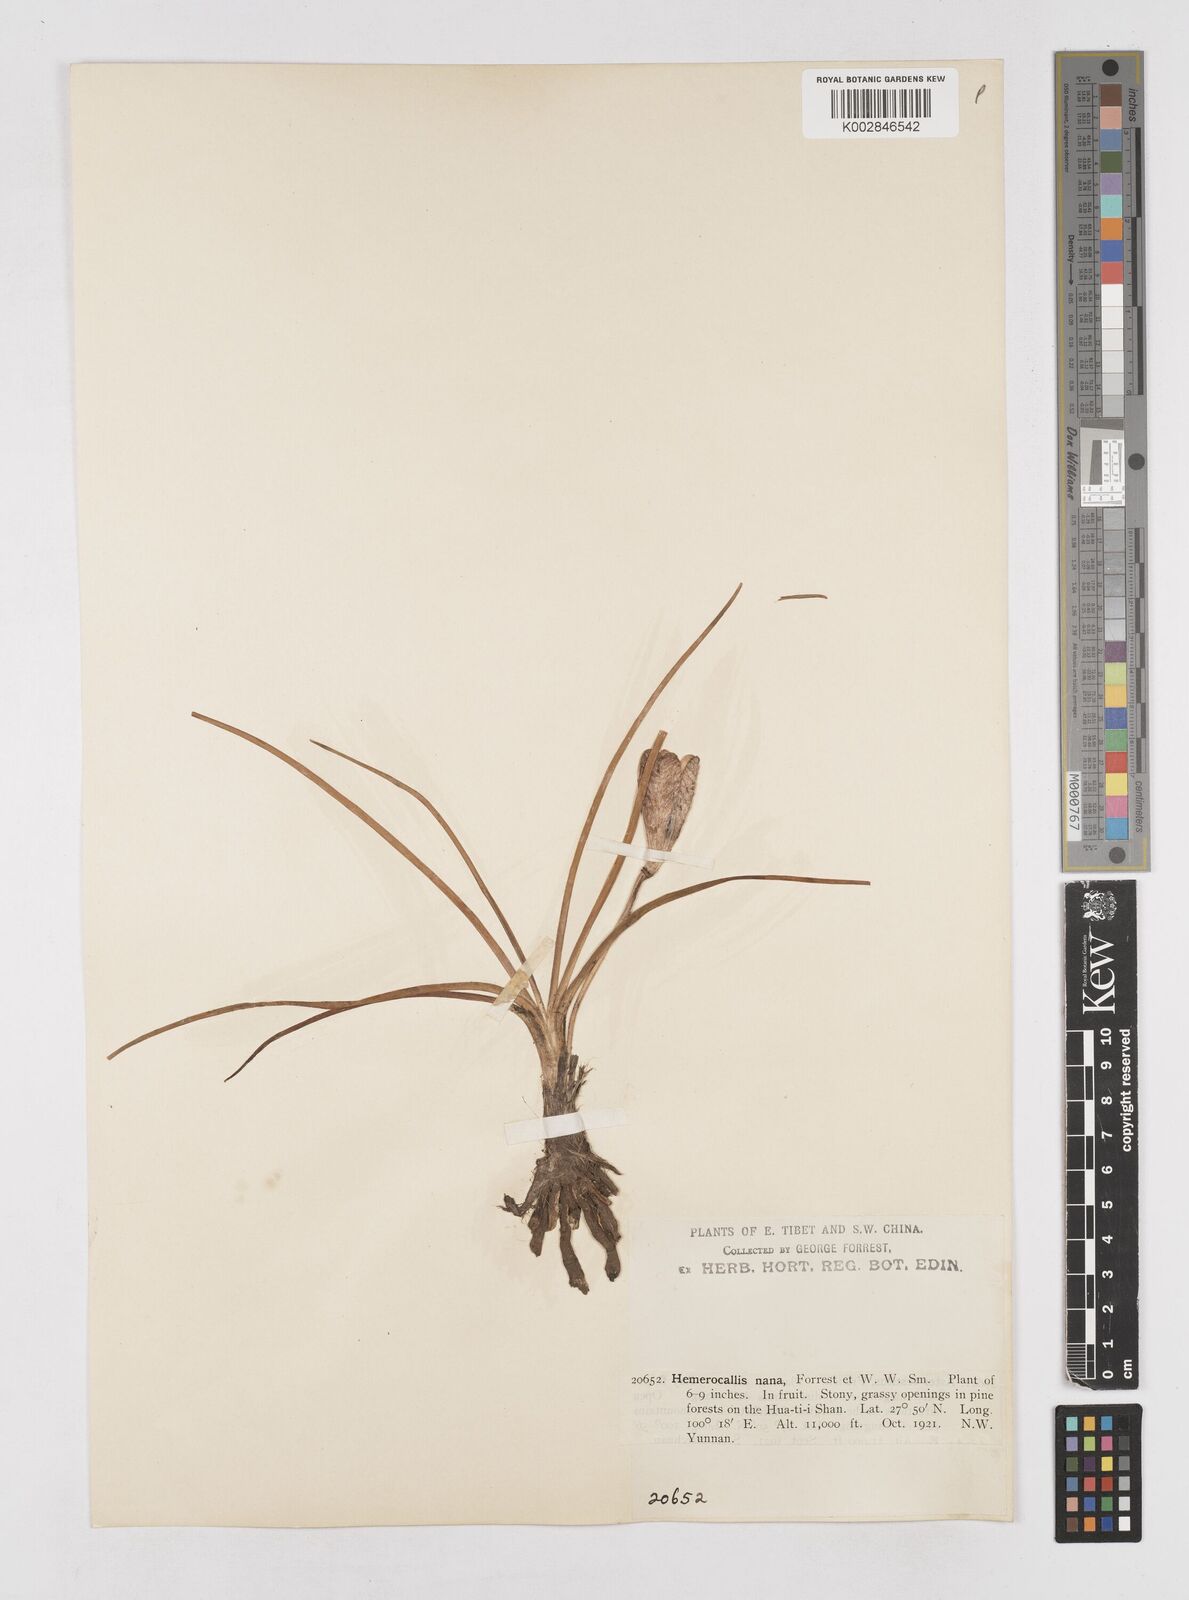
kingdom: Plantae
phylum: Tracheophyta
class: Liliopsida
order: Asparagales
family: Asphodelaceae
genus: Hemerocallis
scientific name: Hemerocallis nana
